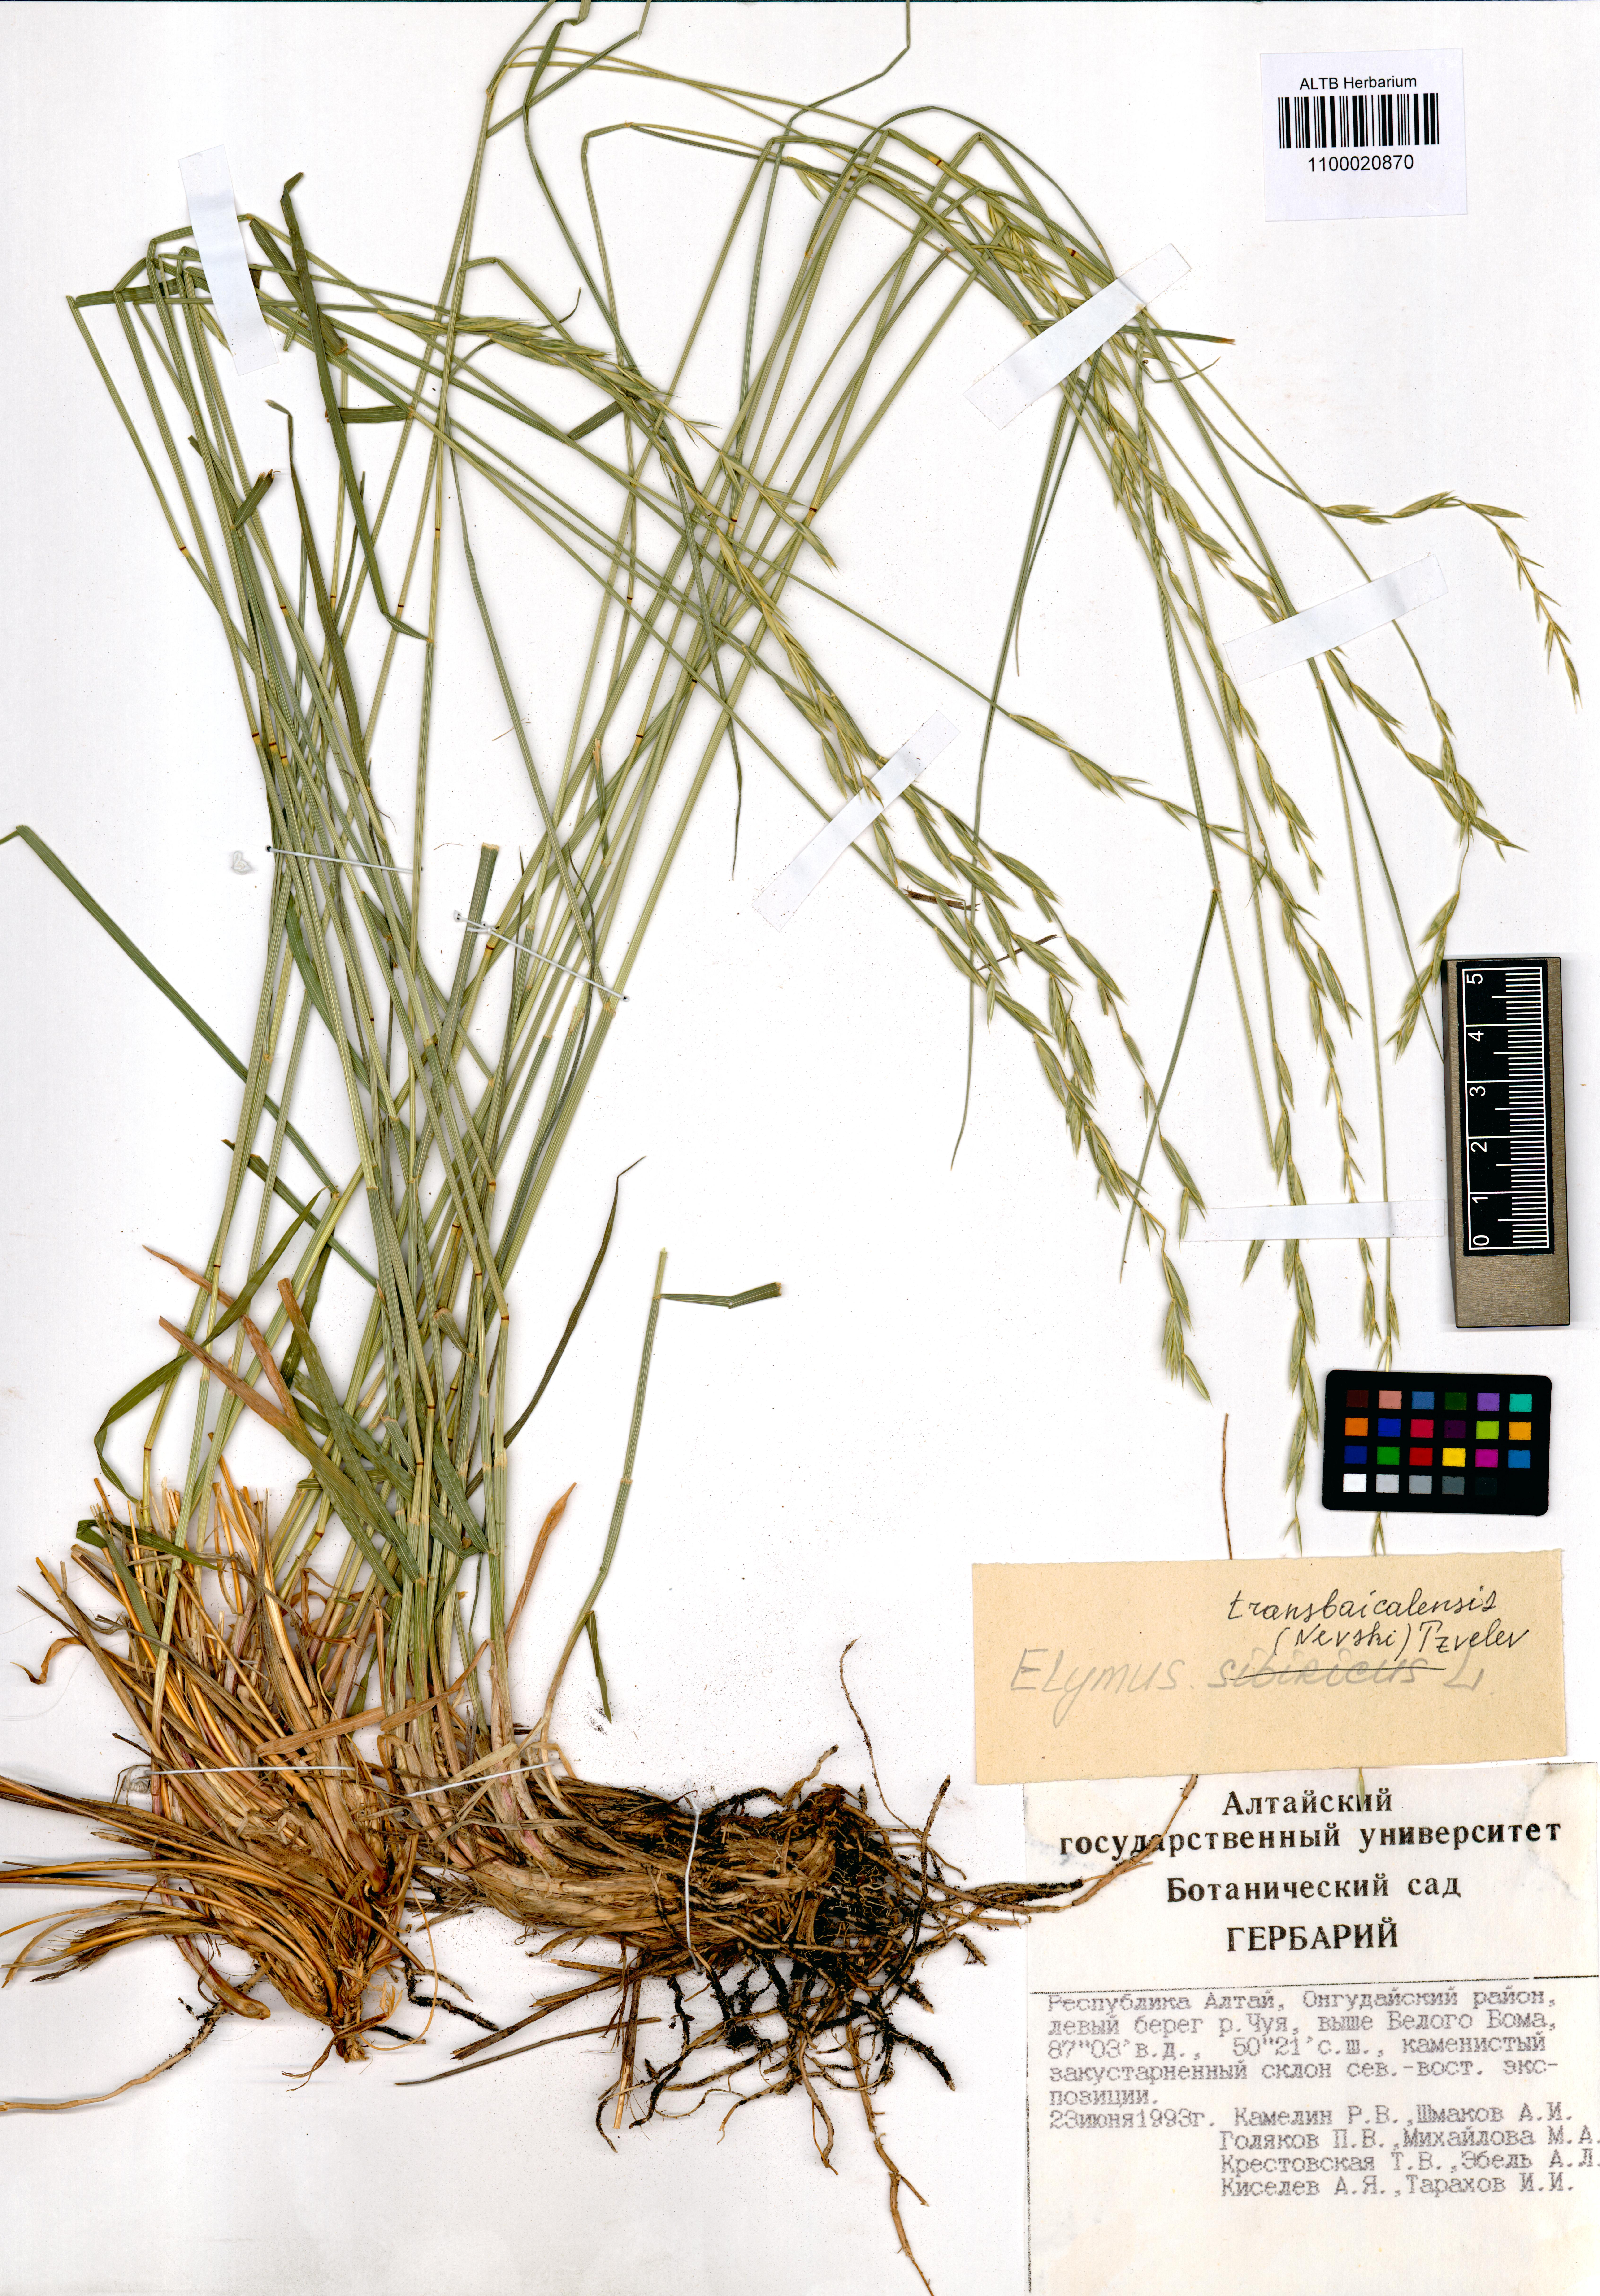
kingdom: Plantae
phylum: Tracheophyta
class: Liliopsida
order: Poales
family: Poaceae
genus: Elymus
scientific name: Elymus mutabilis
